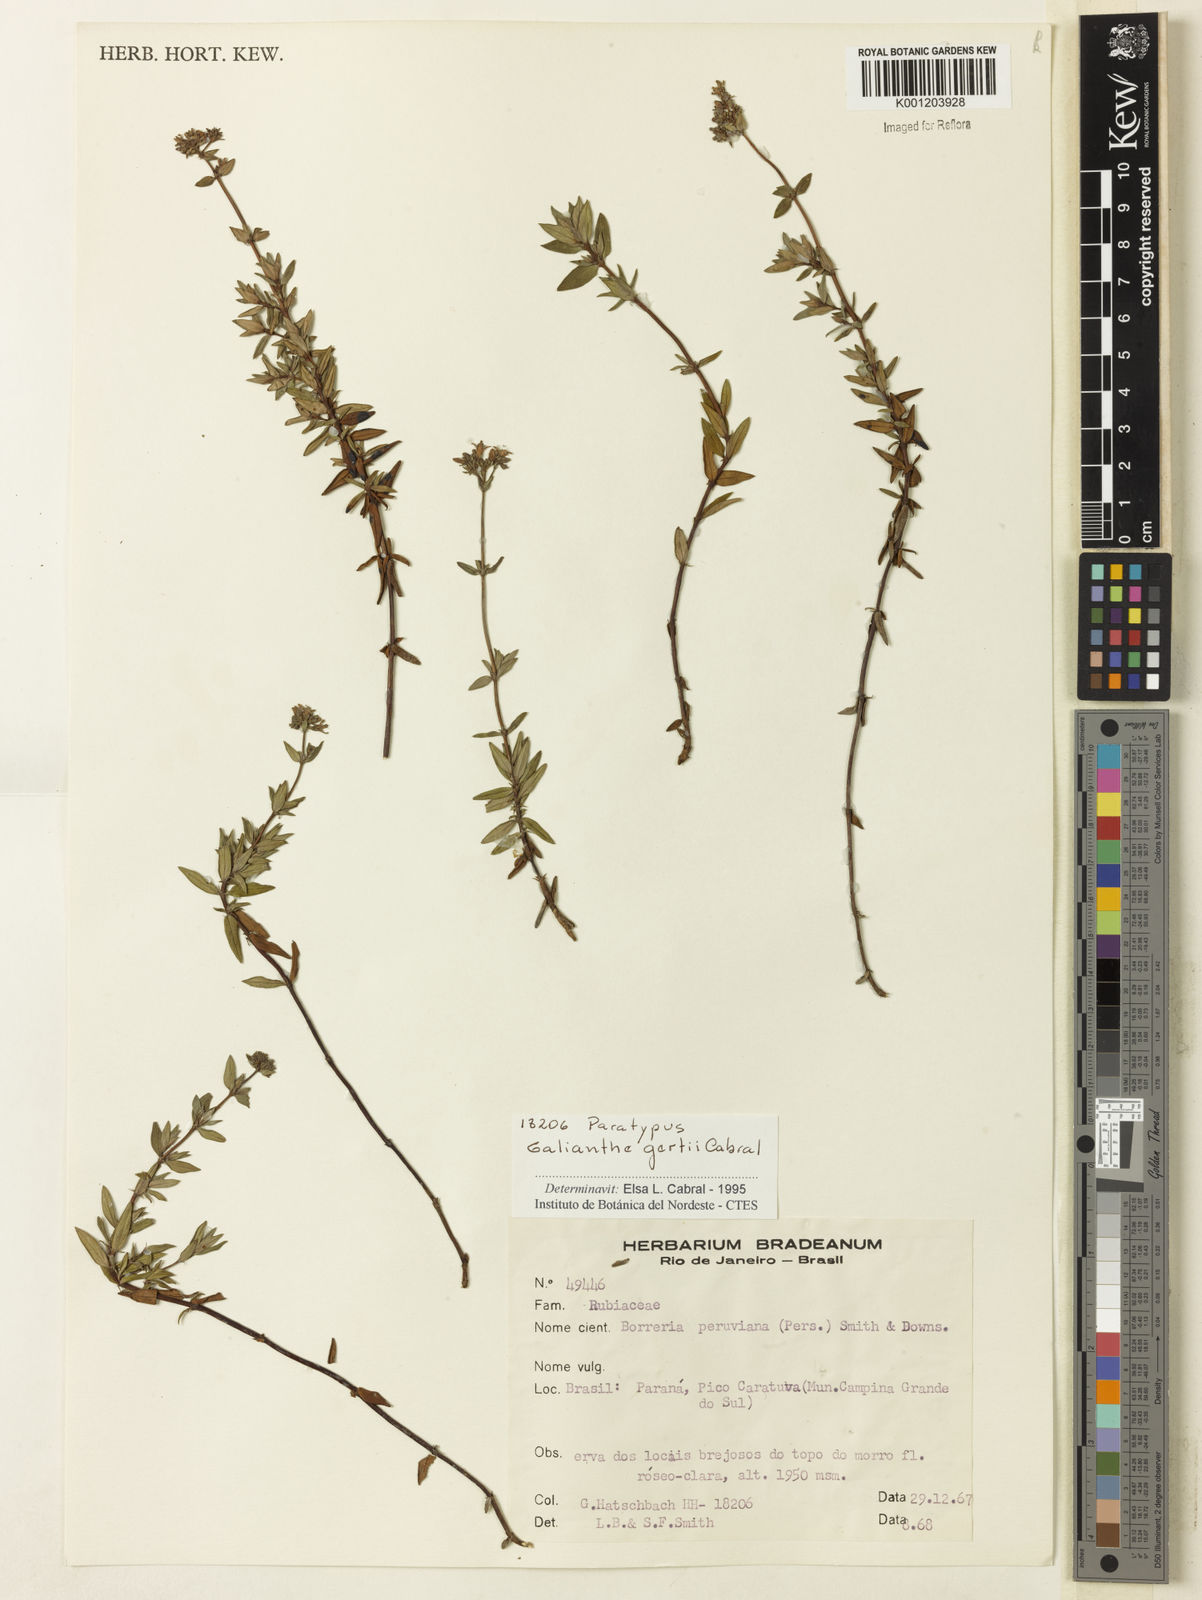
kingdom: Plantae
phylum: Tracheophyta
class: Magnoliopsida
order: Gentianales
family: Rubiaceae
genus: Galianthe
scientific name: Galianthe gertii
